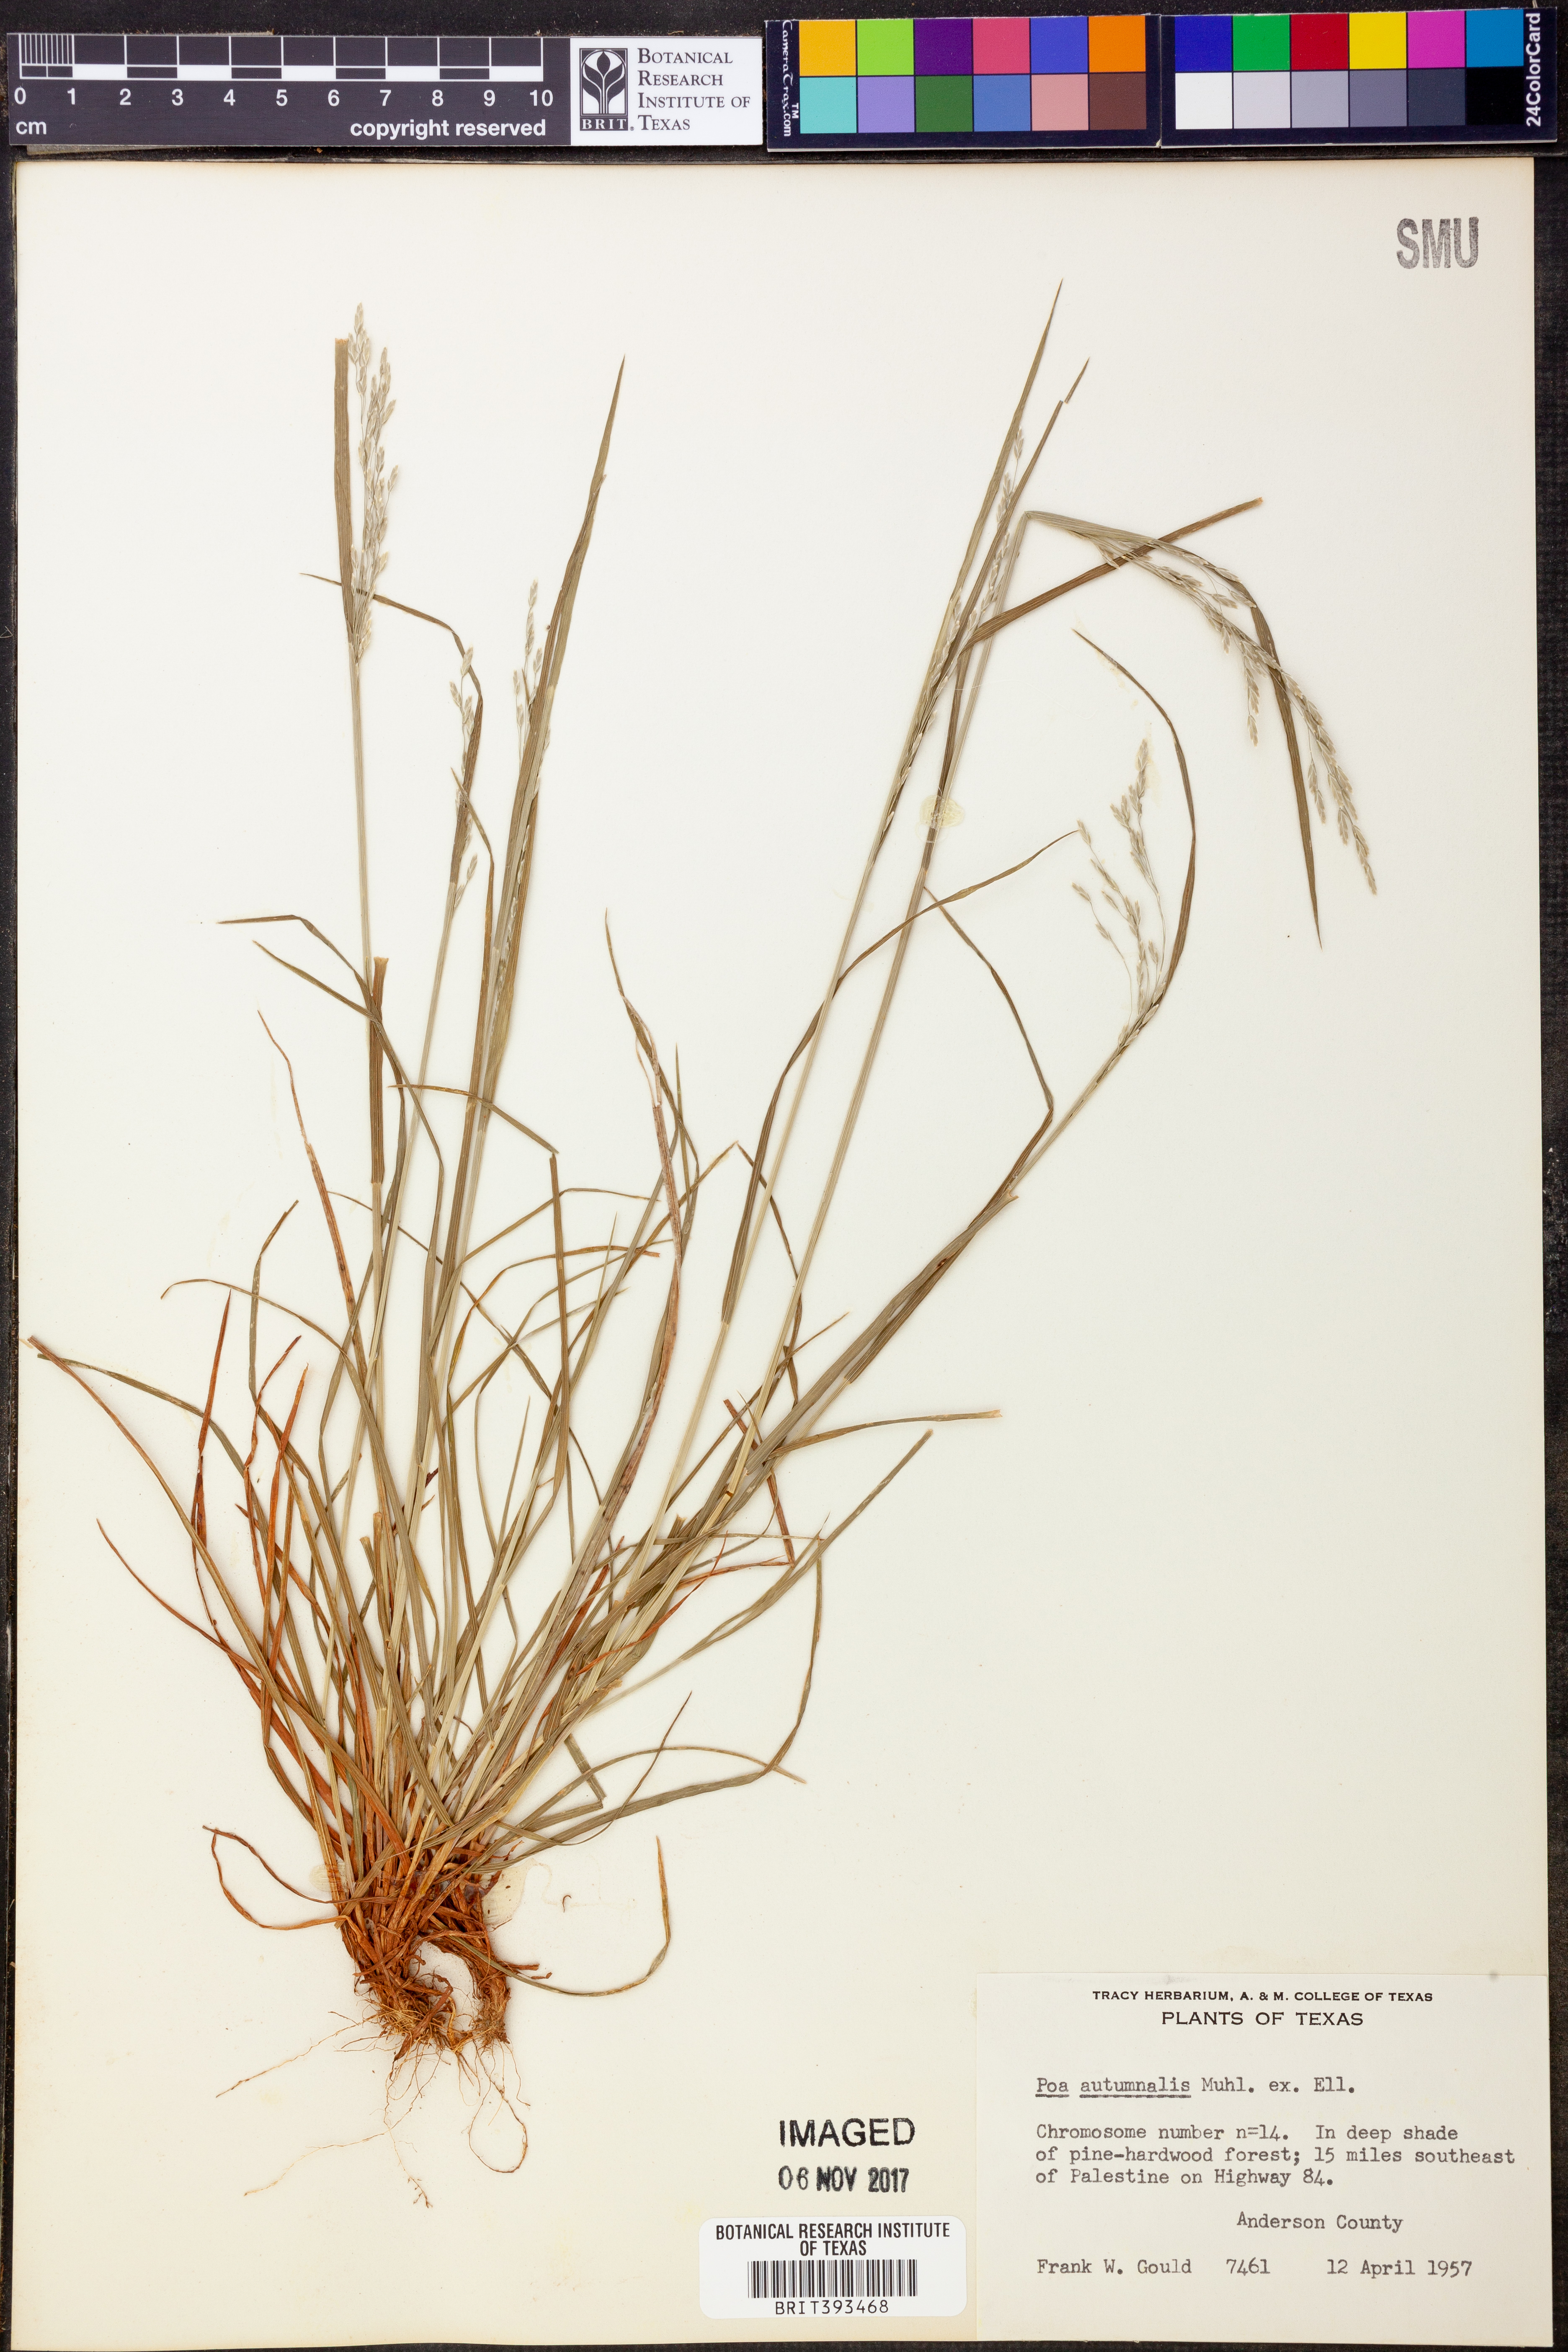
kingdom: Plantae
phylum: Tracheophyta
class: Liliopsida
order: Poales
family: Poaceae
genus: Poa
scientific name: Poa autumnalis
